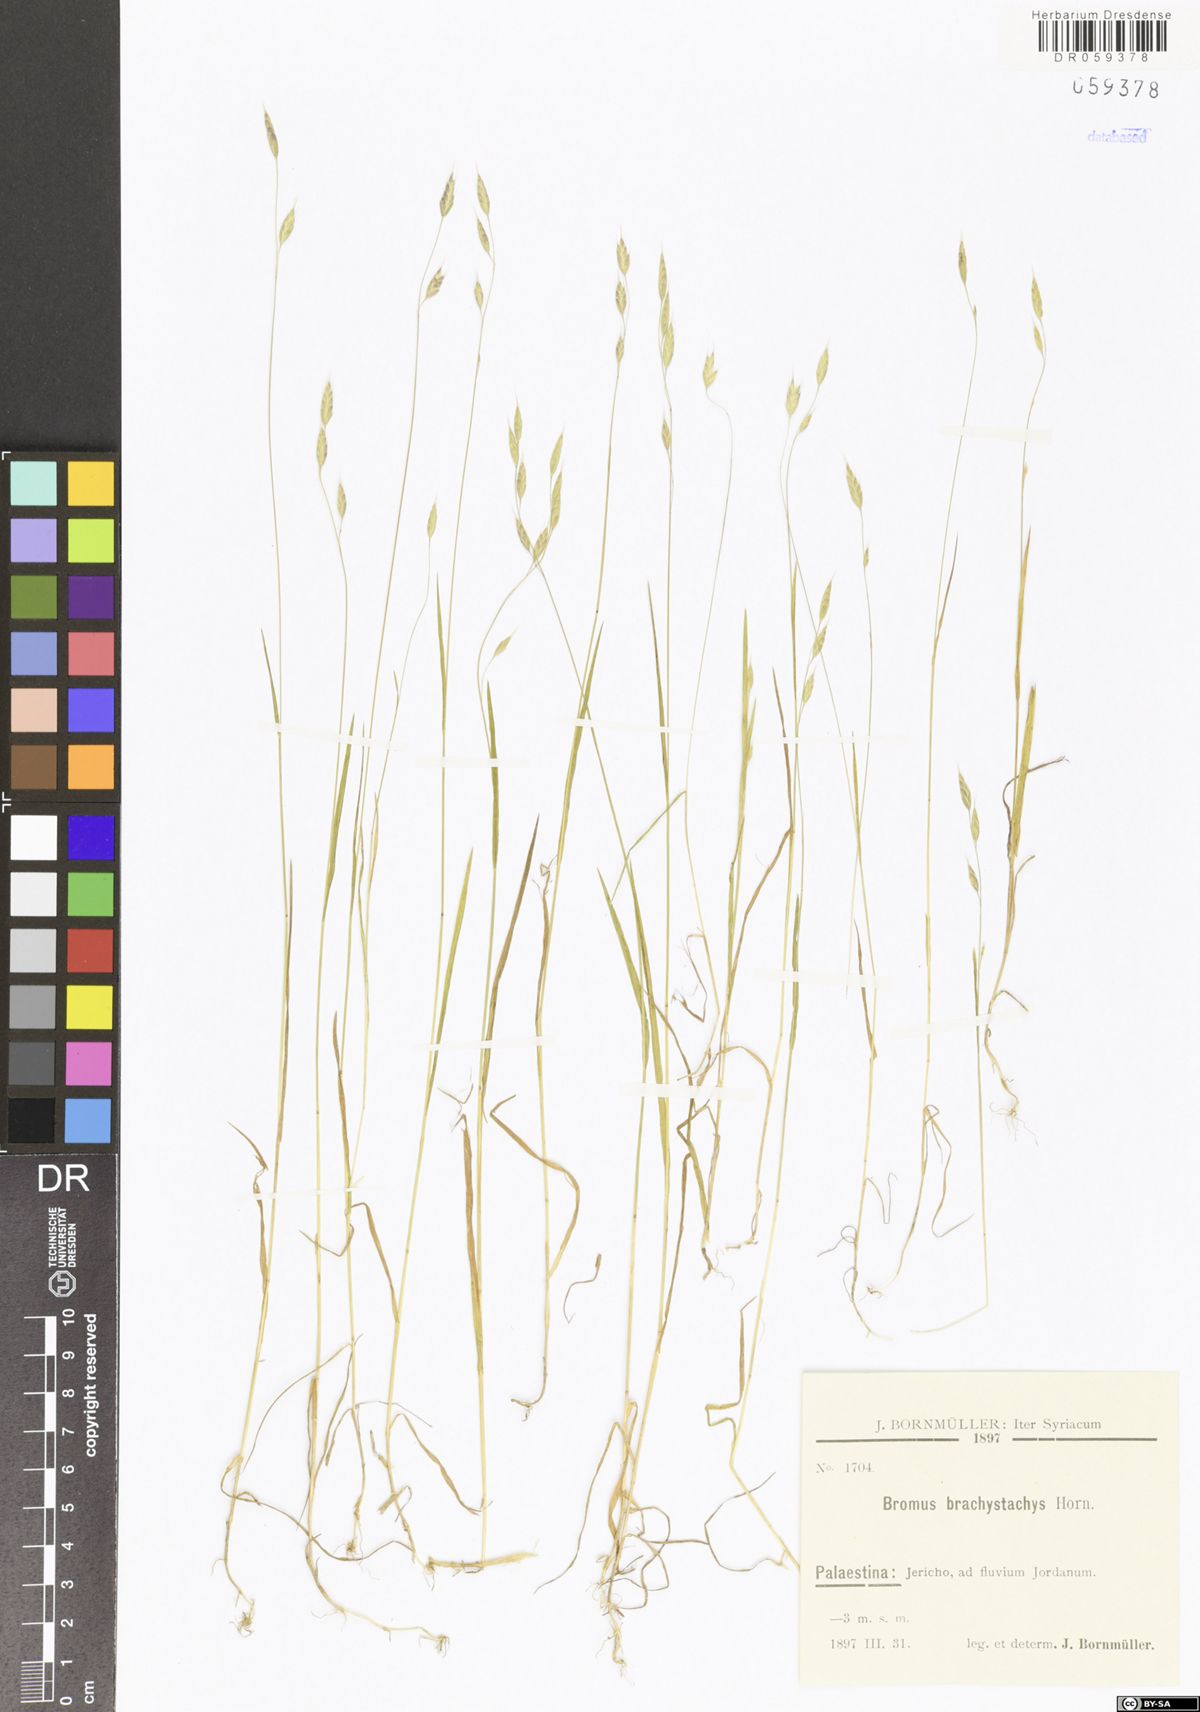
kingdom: Plantae
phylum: Tracheophyta
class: Liliopsida
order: Poales
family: Poaceae
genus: Bromus
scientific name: Bromus brachystachys
